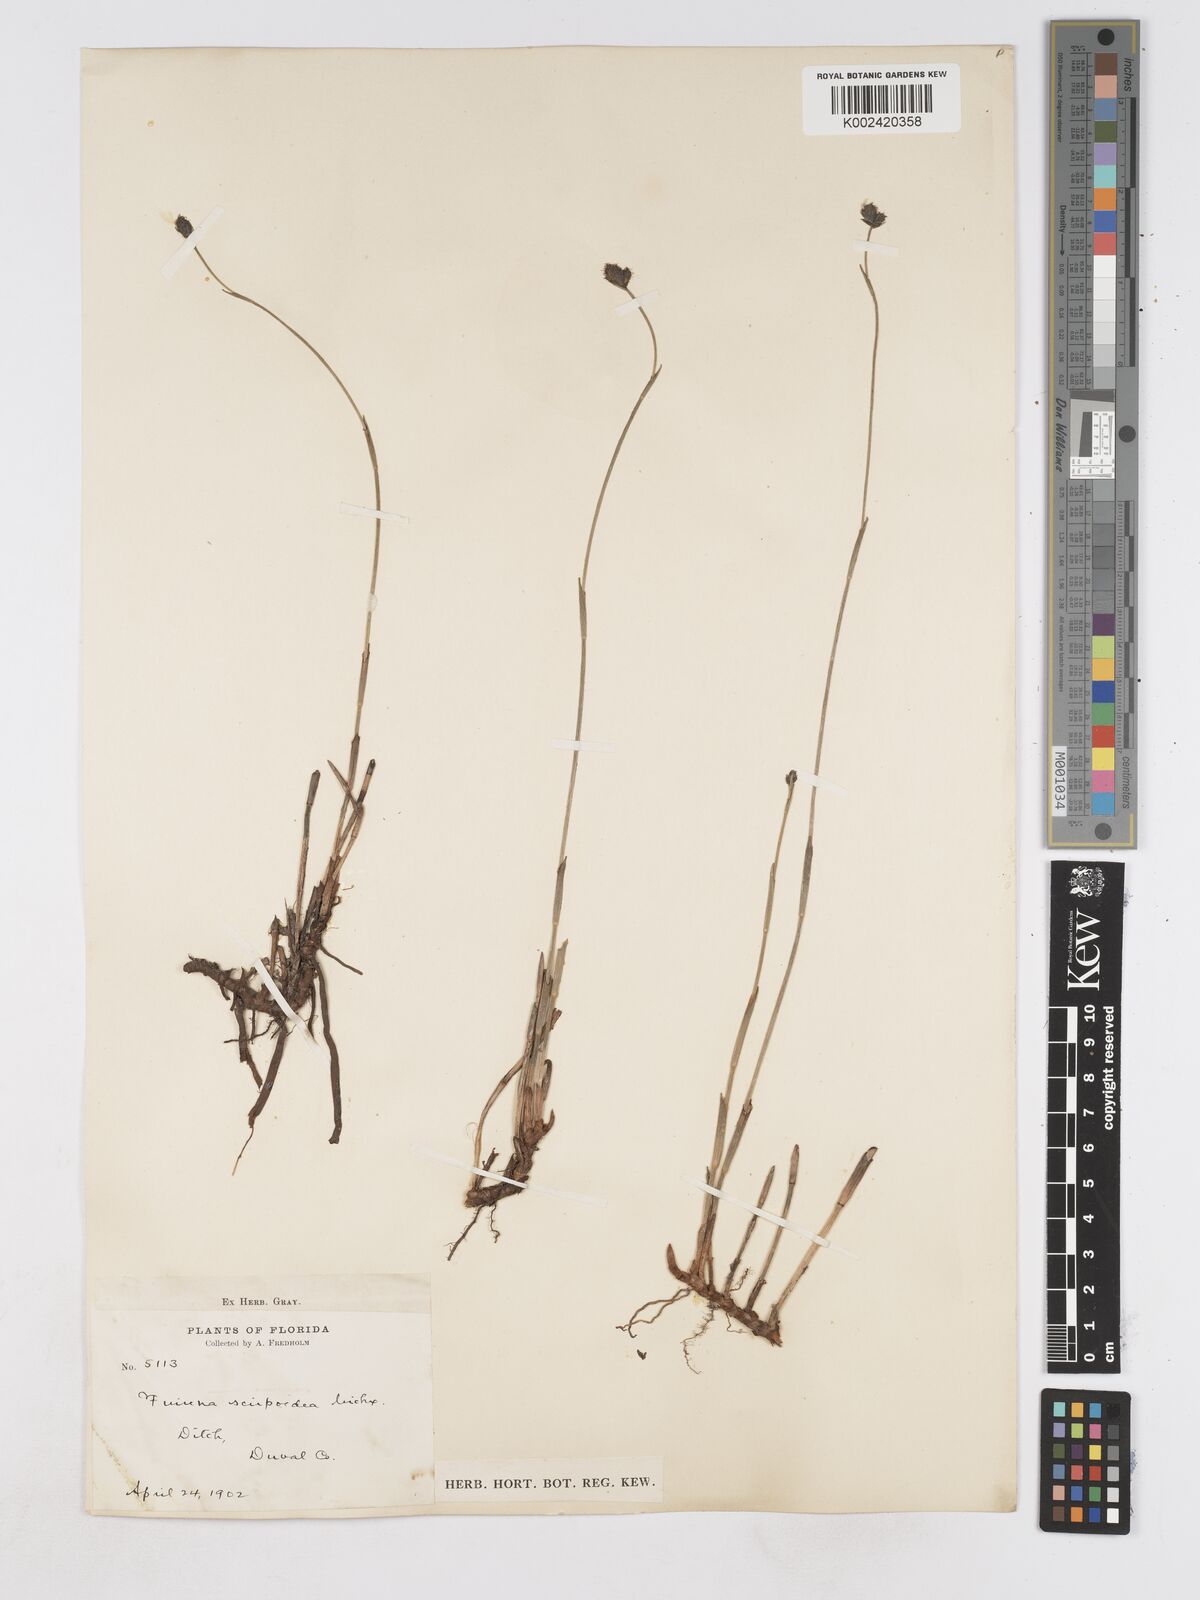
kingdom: Plantae
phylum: Tracheophyta
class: Liliopsida
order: Poales
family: Cyperaceae
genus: Fuirena
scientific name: Fuirena scirpoidea
